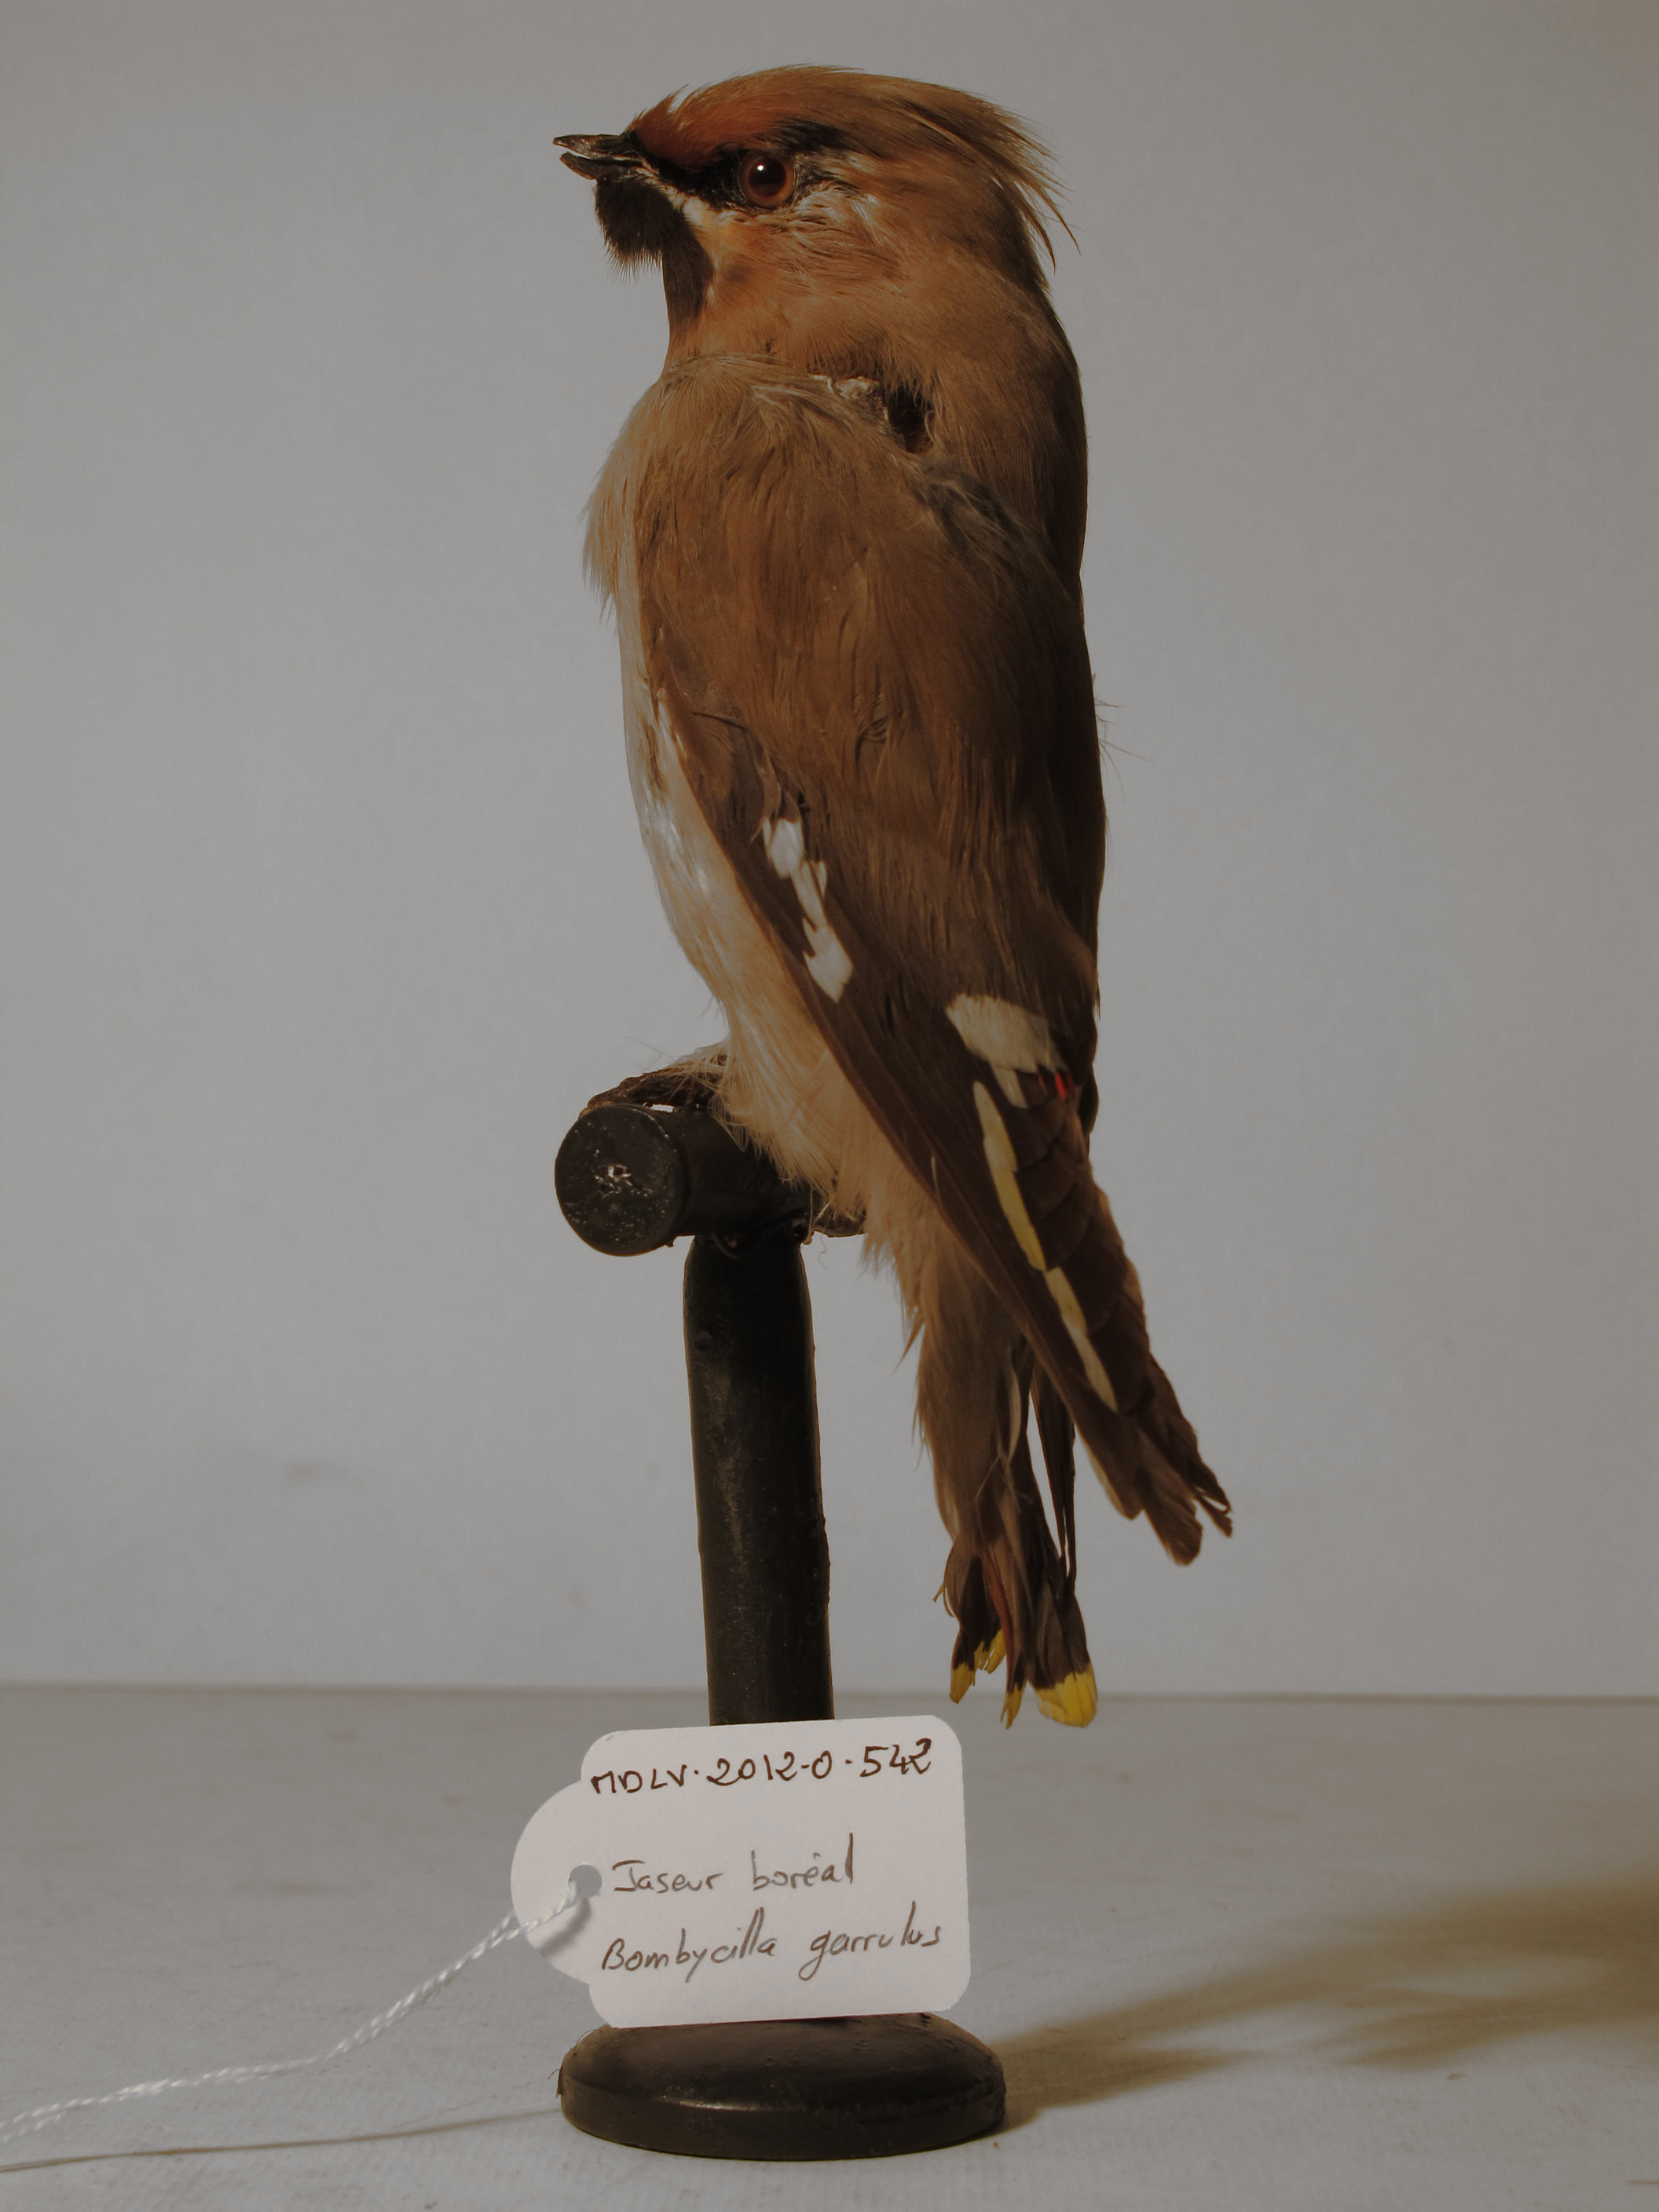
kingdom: Animalia
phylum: Chordata
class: Aves
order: Passeriformes
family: Bombycillidae
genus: Bombycilla
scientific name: Bombycilla garrulus
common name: Bohemian Waxwing
